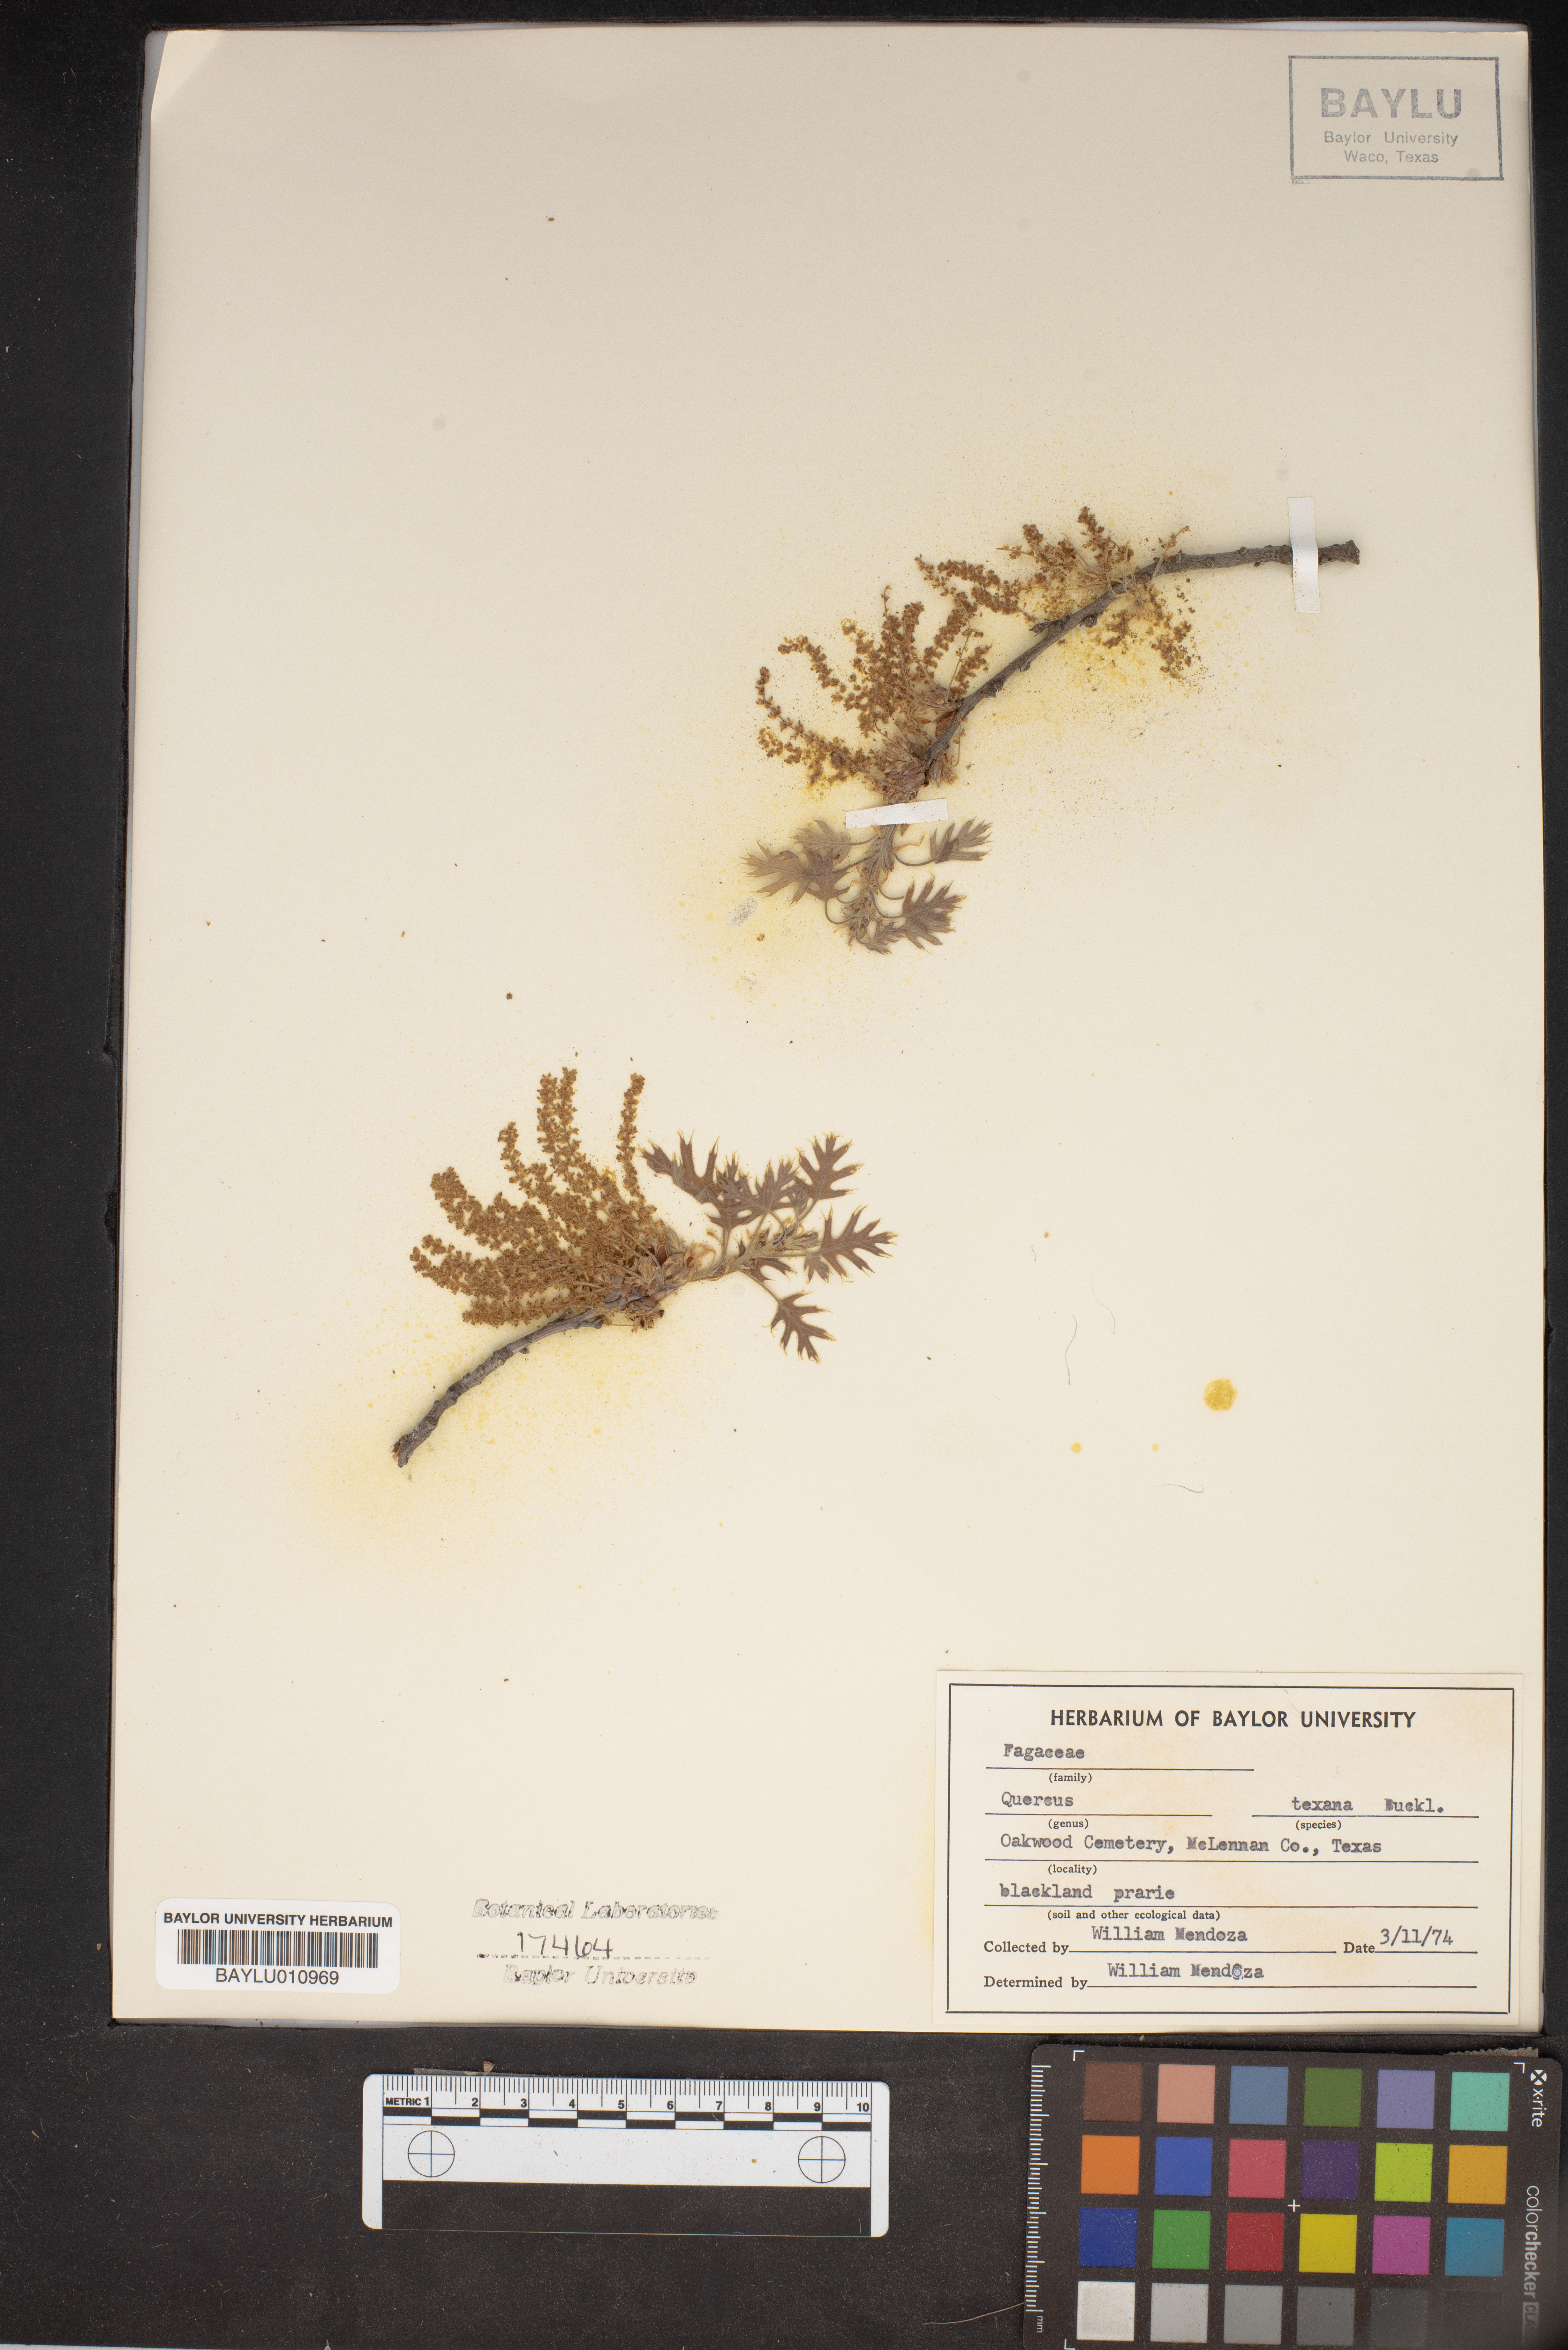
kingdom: Plantae
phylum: Tracheophyta
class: Magnoliopsida
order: Fagales
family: Fagaceae
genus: Quercus
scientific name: Quercus texana
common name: Nuttall oak
